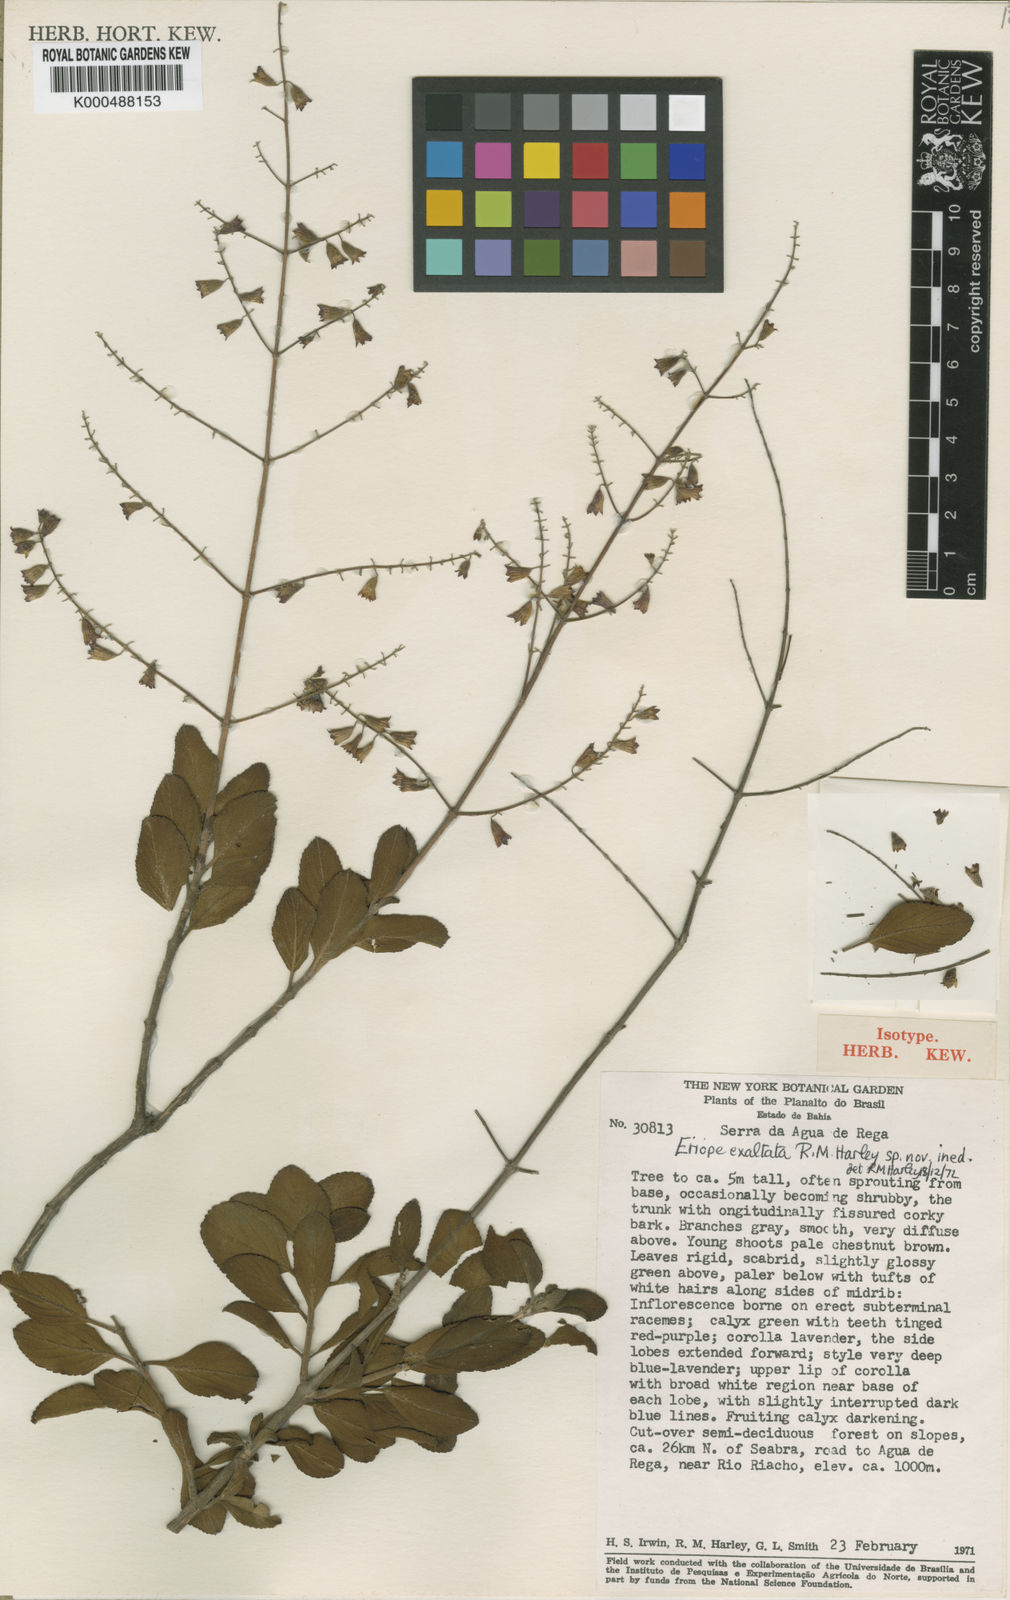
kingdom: Plantae
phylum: Tracheophyta
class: Magnoliopsida
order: Lamiales
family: Lamiaceae
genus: Eriope
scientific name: Eriope exaltata
